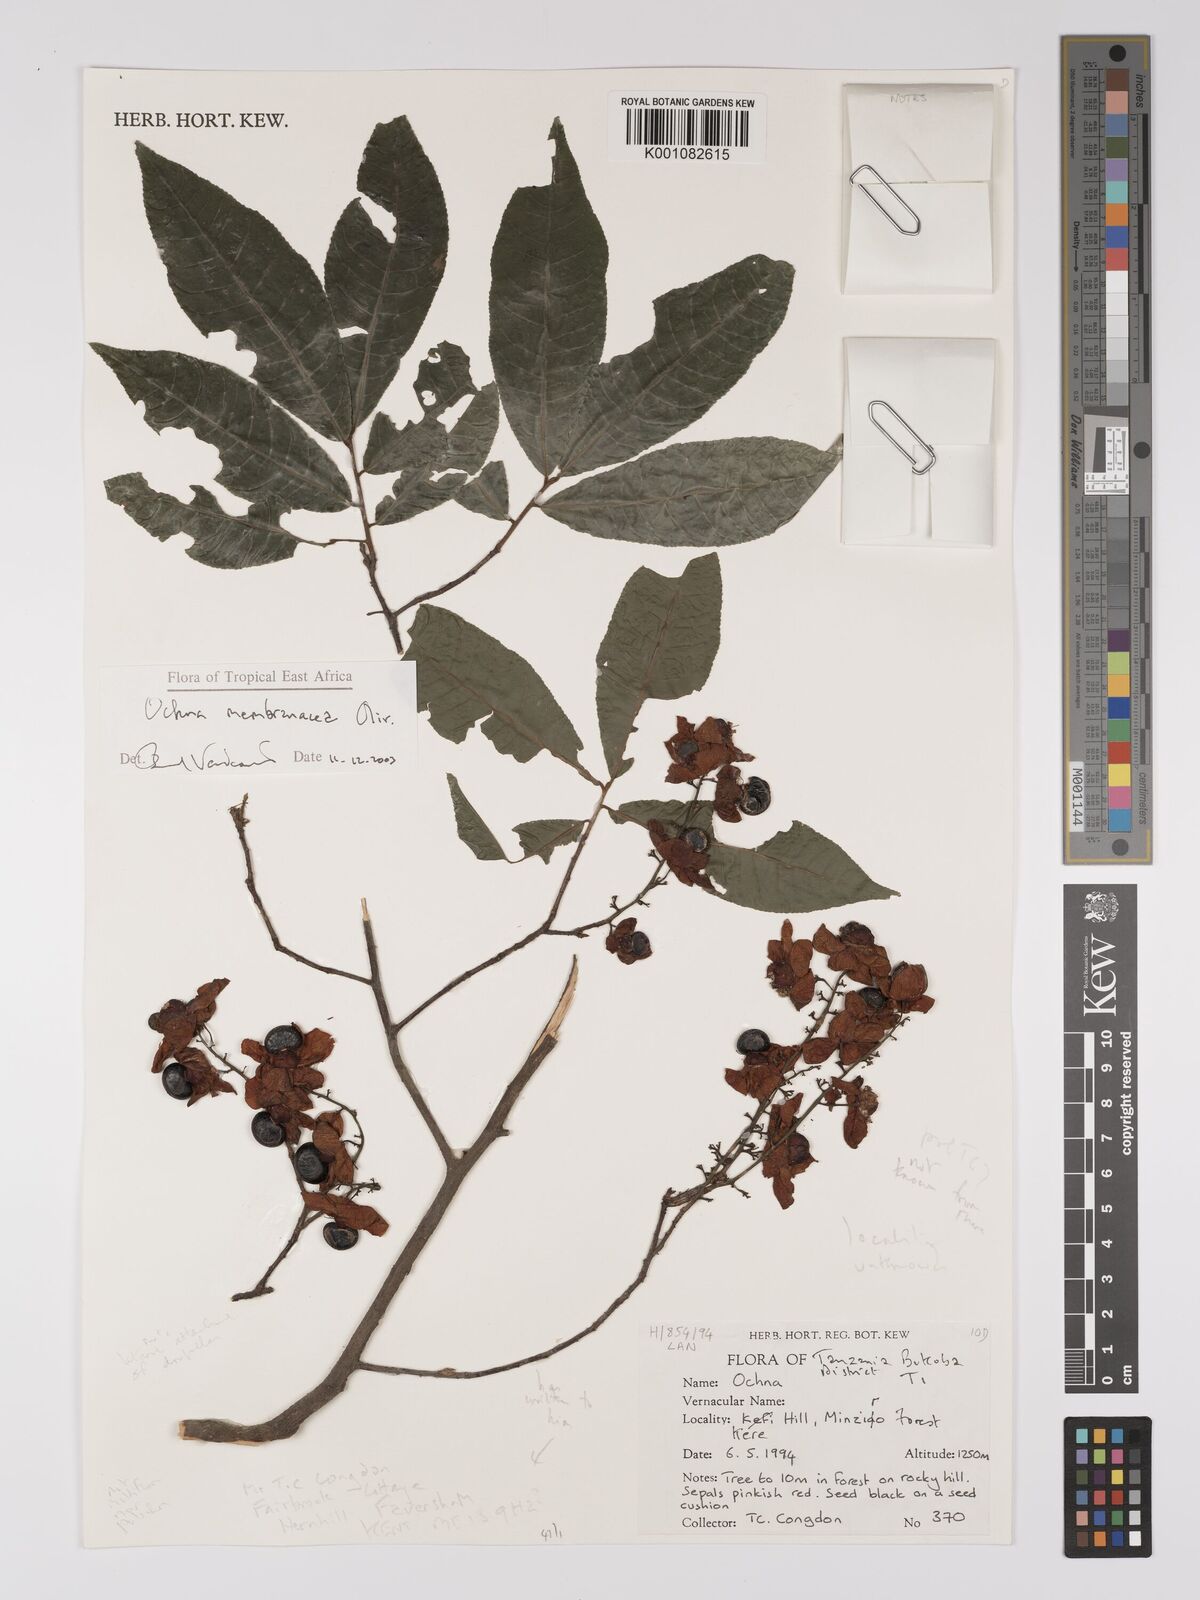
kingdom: Plantae
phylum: Tracheophyta
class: Magnoliopsida
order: Malpighiales
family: Ochnaceae
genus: Ochna
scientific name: Ochna membranacea
